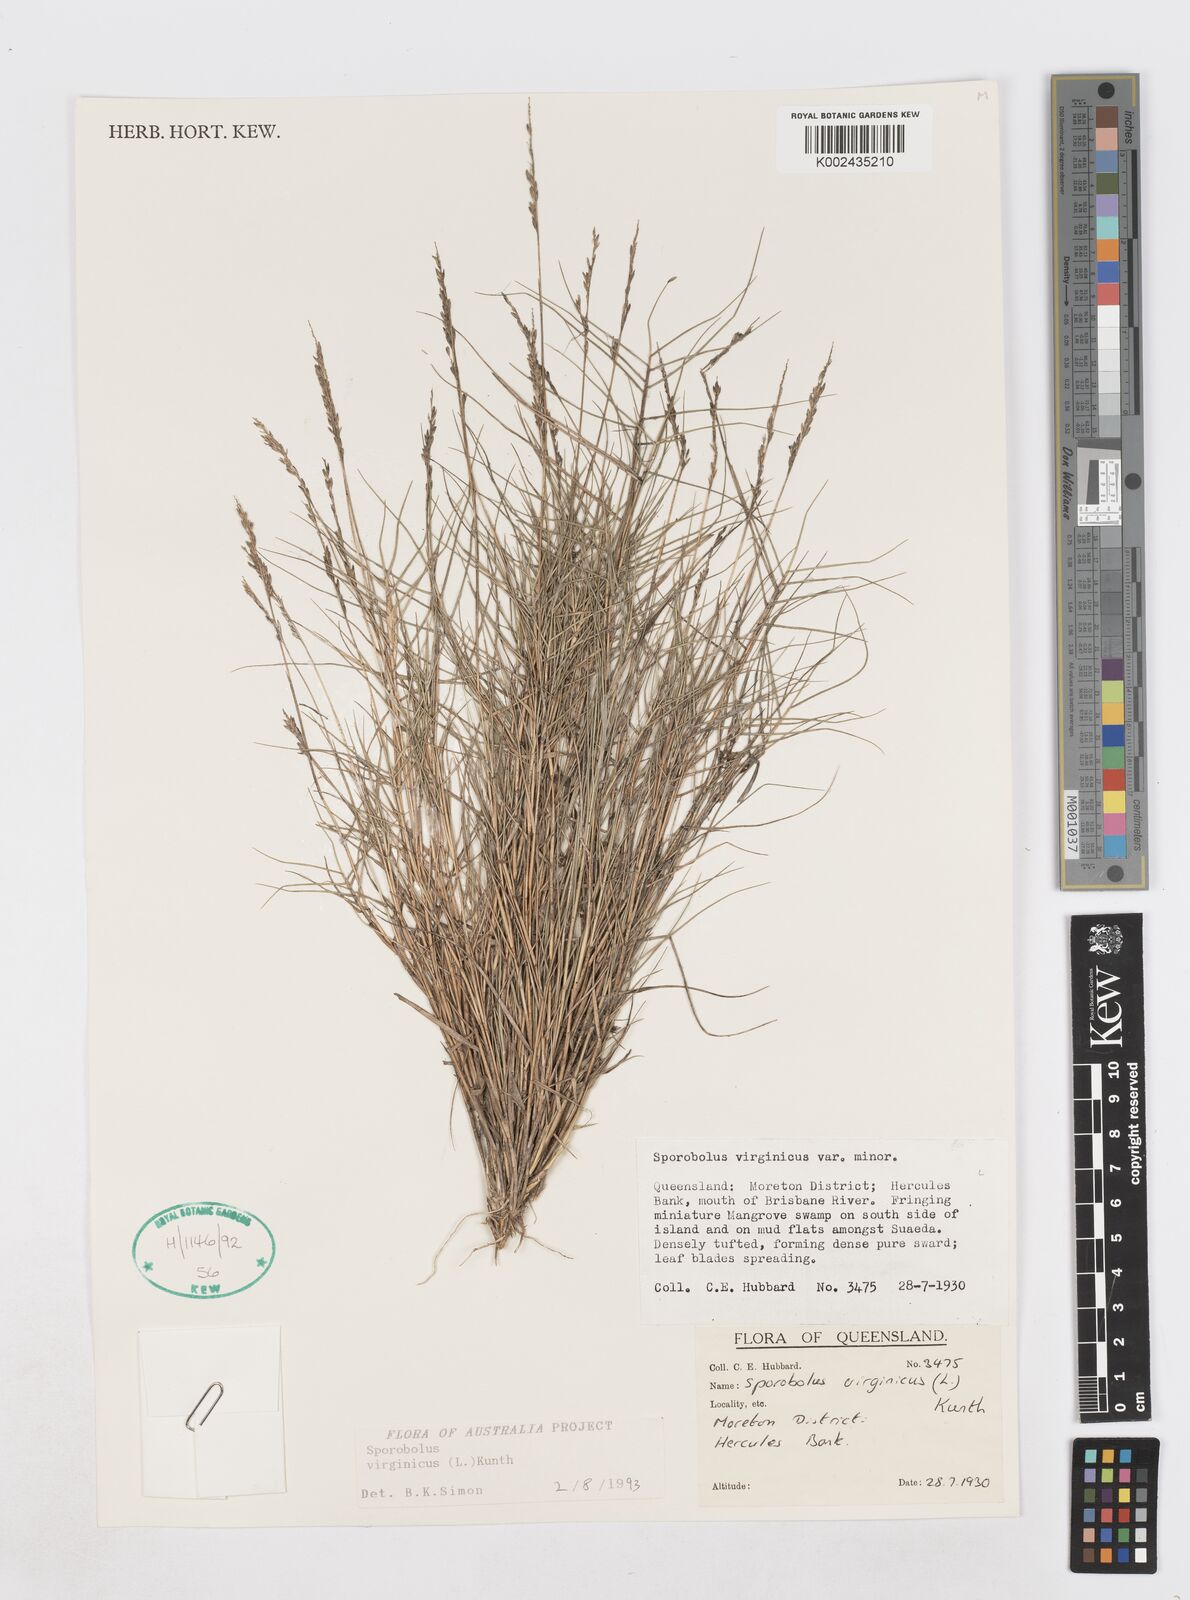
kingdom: Plantae
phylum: Tracheophyta
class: Liliopsida
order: Poales
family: Poaceae
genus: Sporobolus
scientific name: Sporobolus virginicus
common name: Beach dropseed
